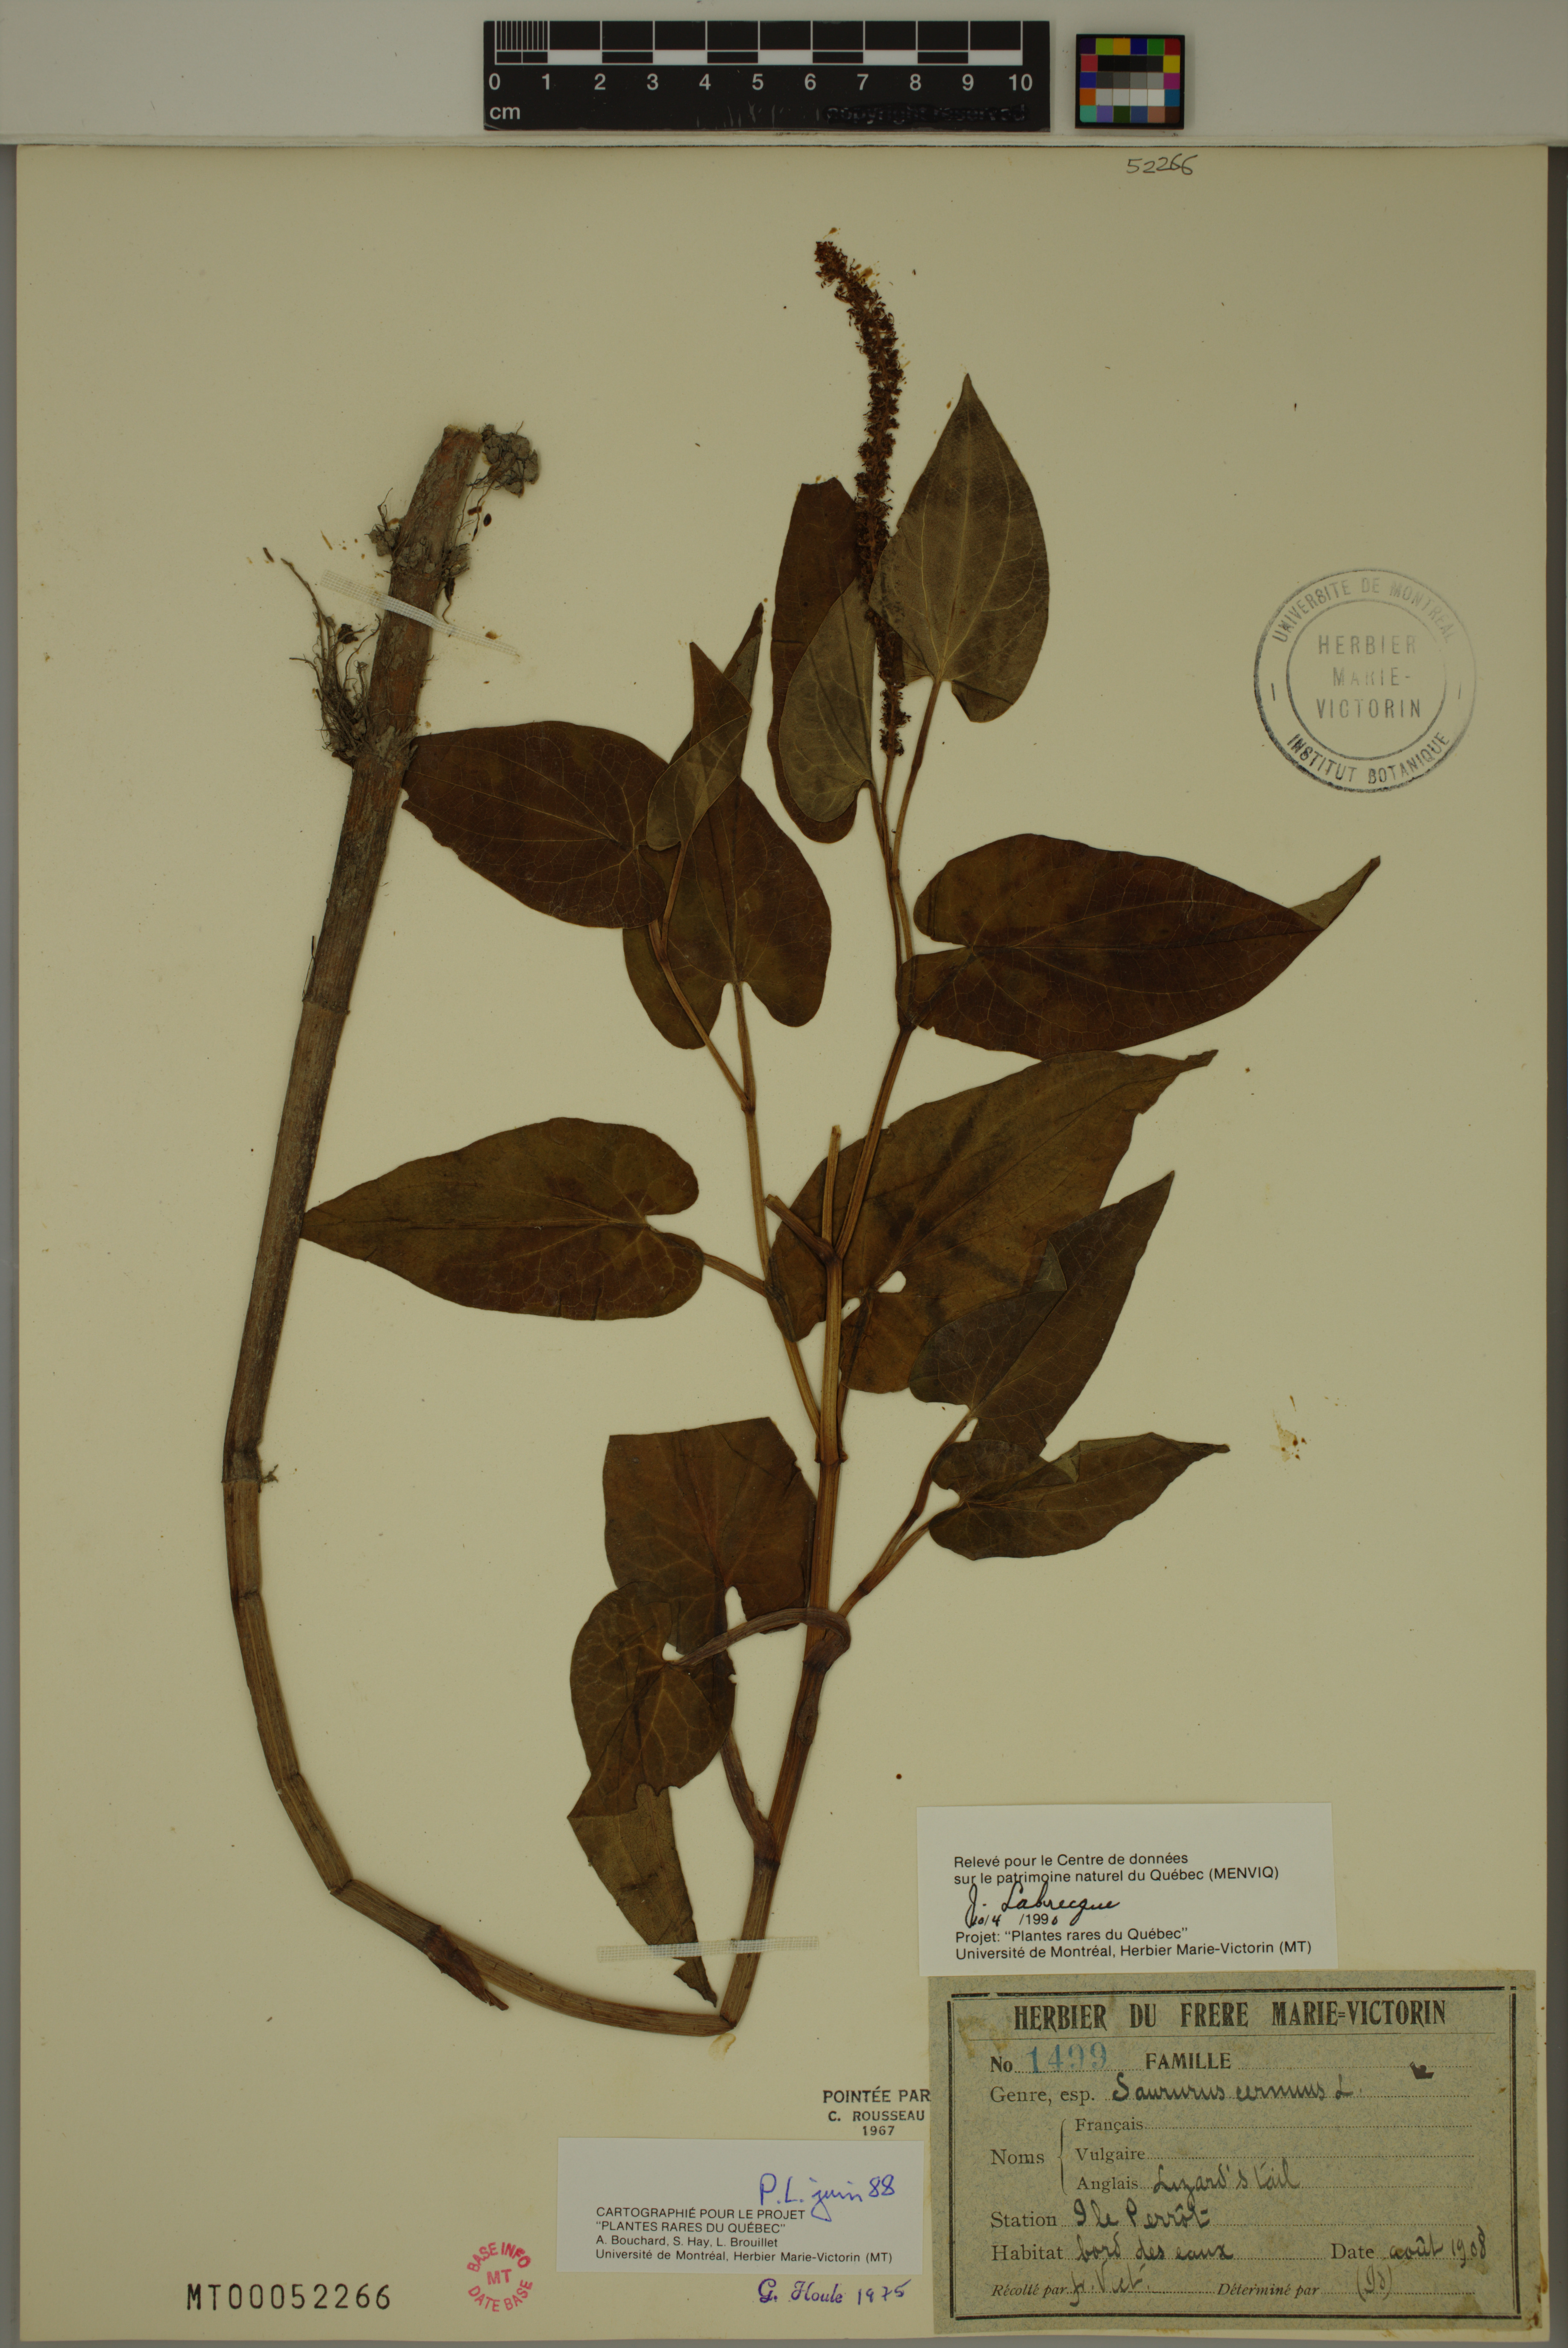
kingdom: Plantae
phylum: Tracheophyta
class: Magnoliopsida
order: Piperales
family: Saururaceae
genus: Saururus
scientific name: Saururus cernuus
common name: Lizard's-tail
